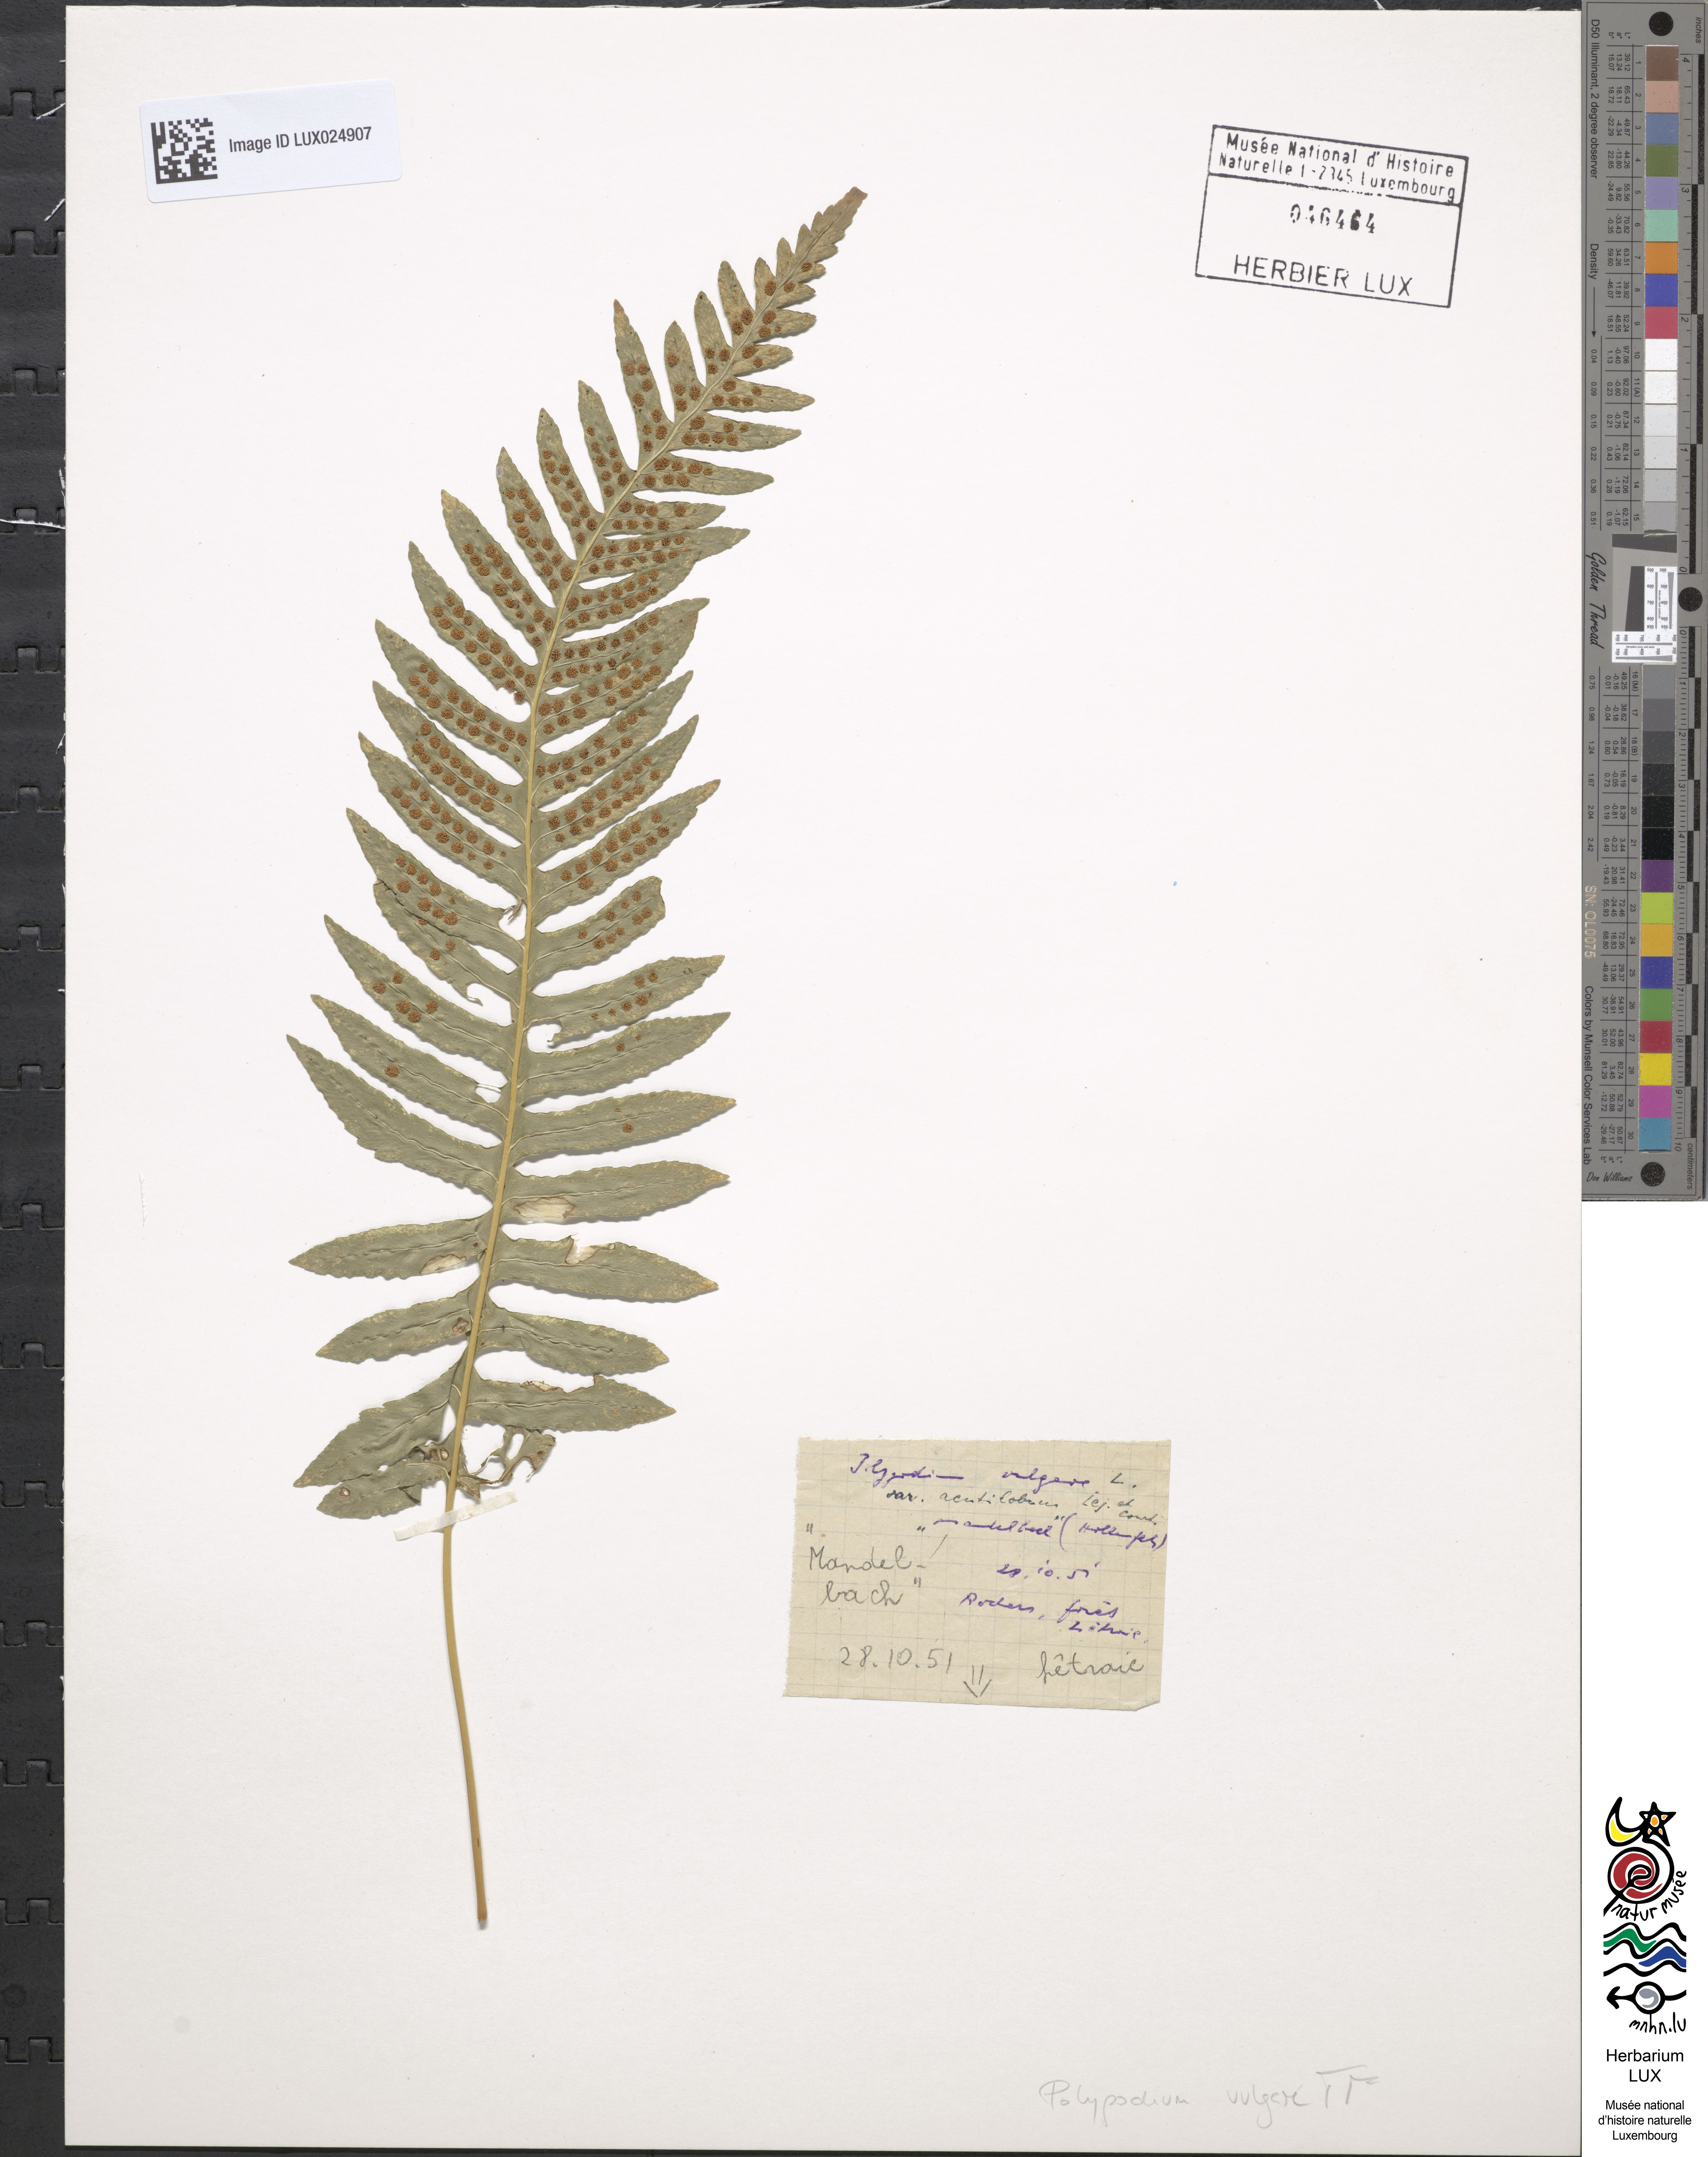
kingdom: Plantae
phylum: Tracheophyta
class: Polypodiopsida
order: Polypodiales
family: Polypodiaceae
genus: Polypodium
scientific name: Polypodium vulgare
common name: Common polypody
